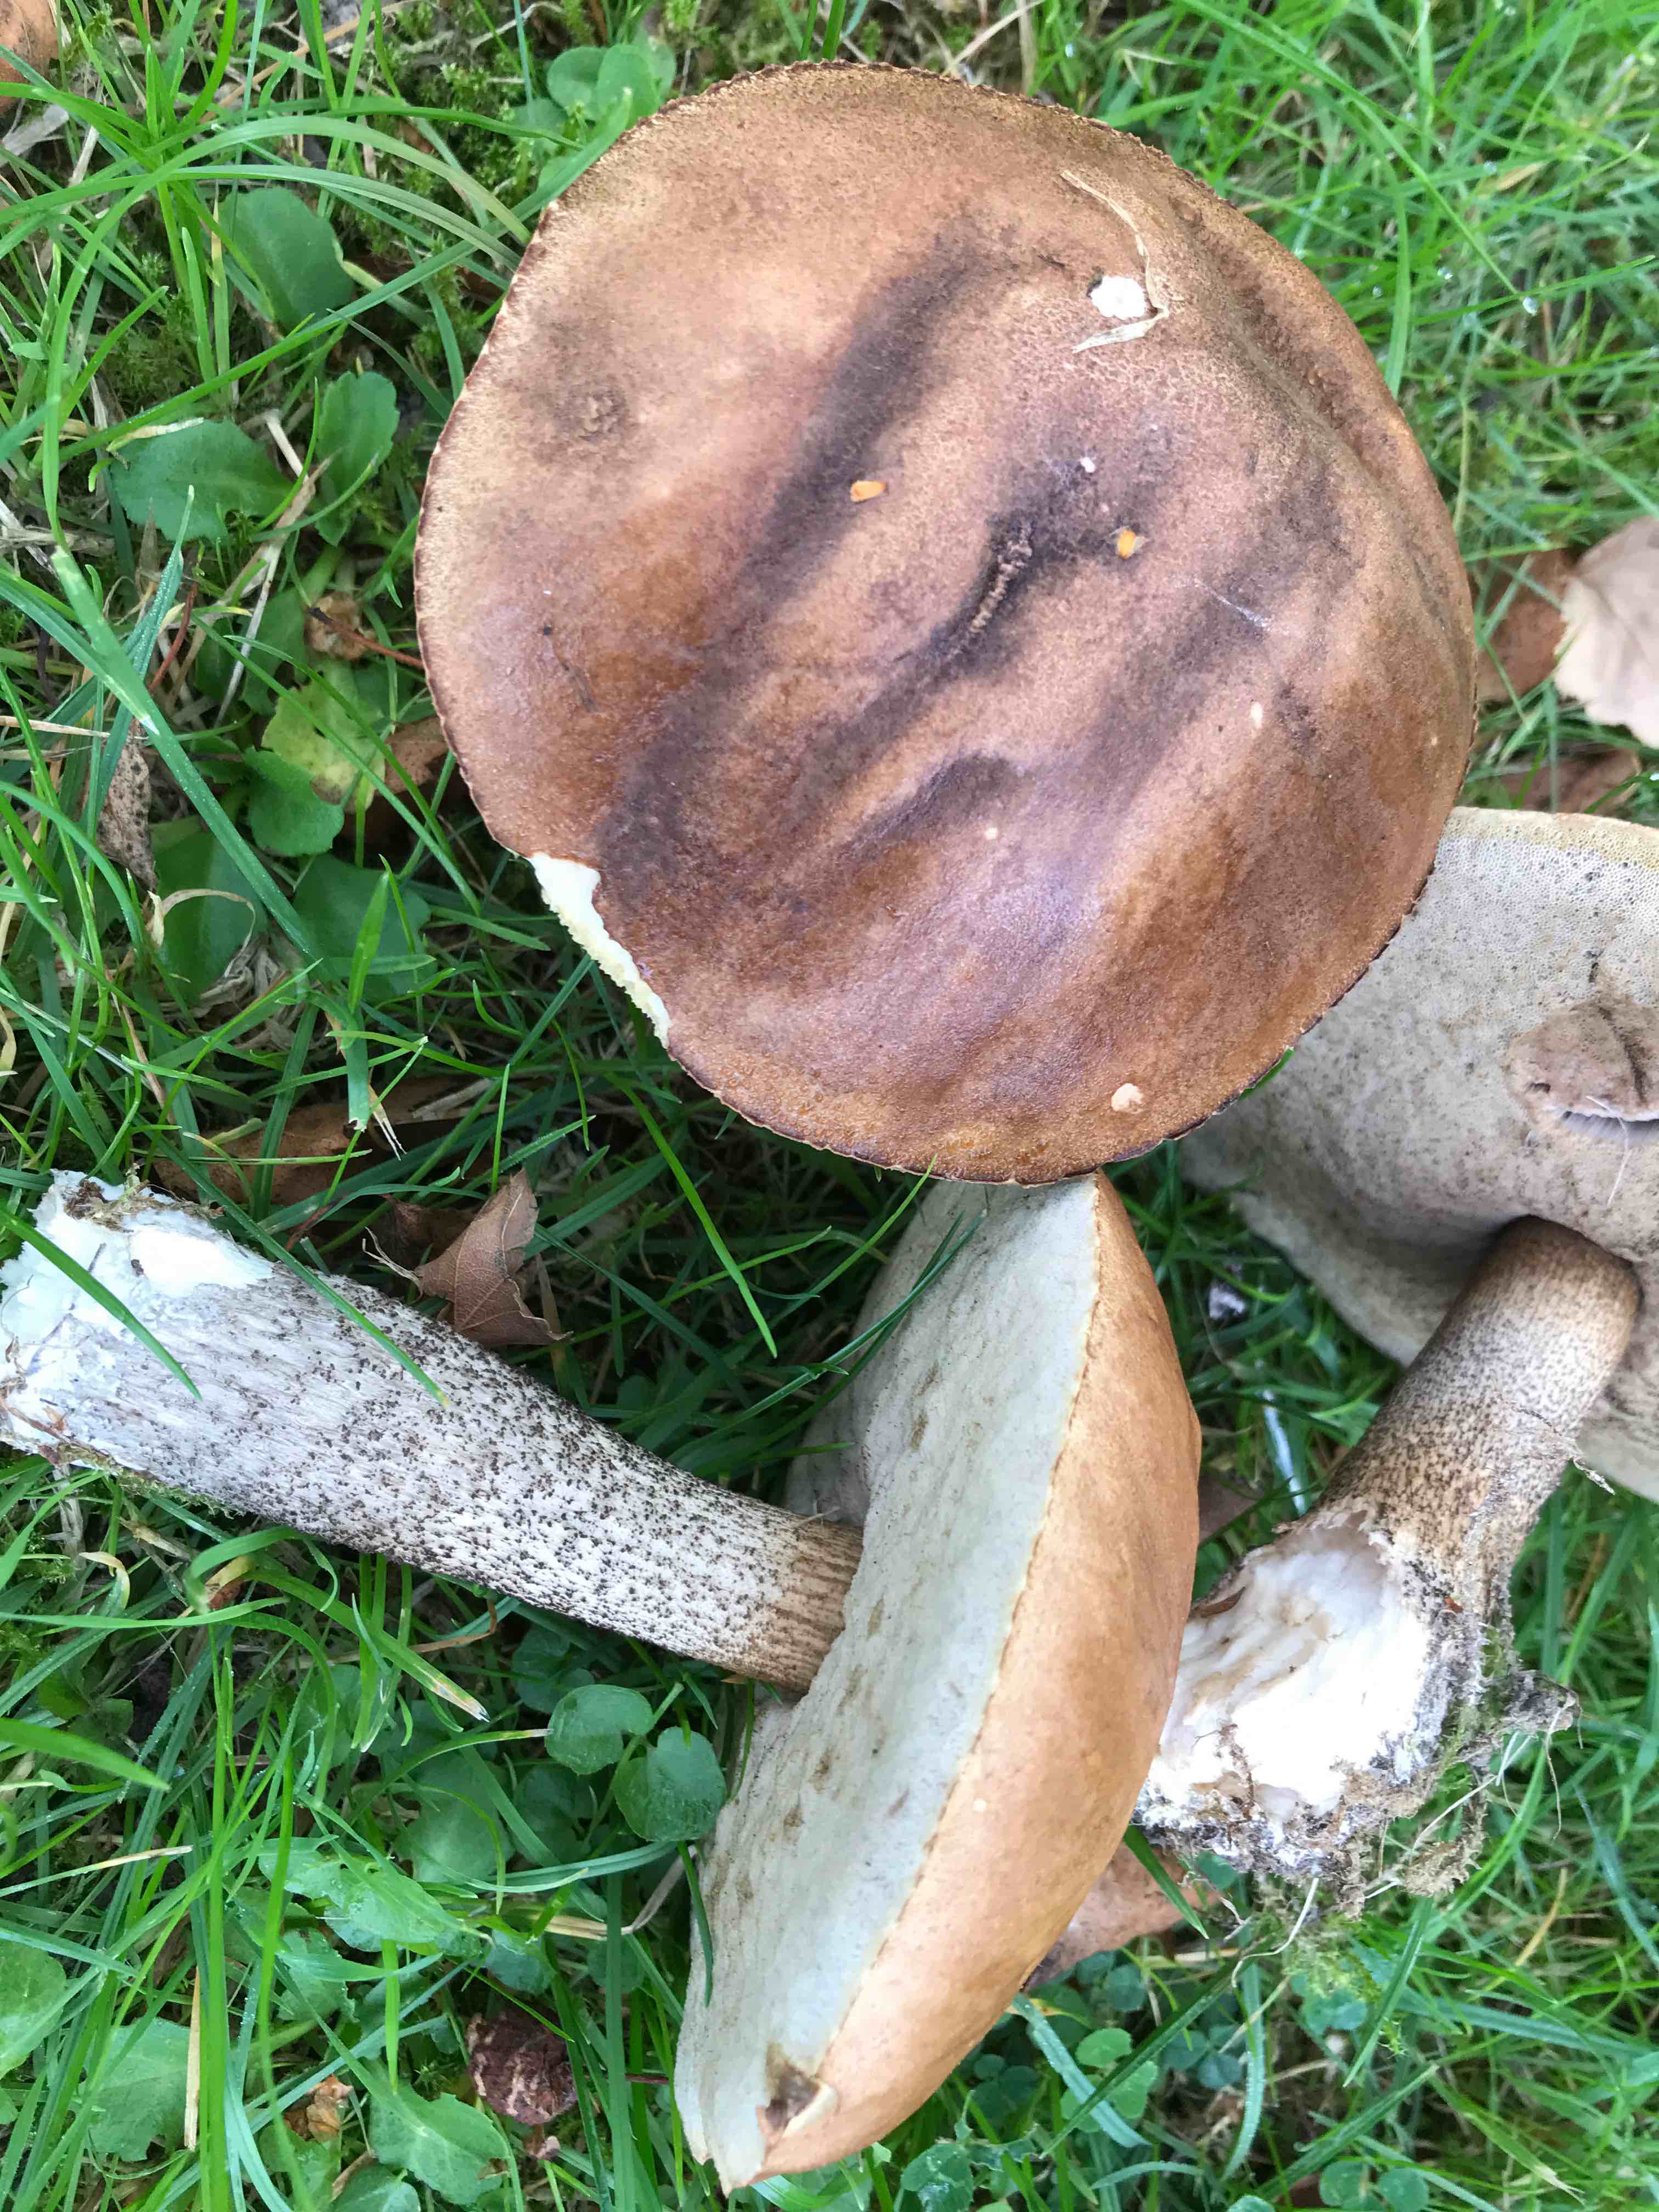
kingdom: Fungi
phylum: Basidiomycota
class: Agaricomycetes
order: Boletales
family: Boletaceae
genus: Leccinum
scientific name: Leccinum scabrum
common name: brun skælrørhat
